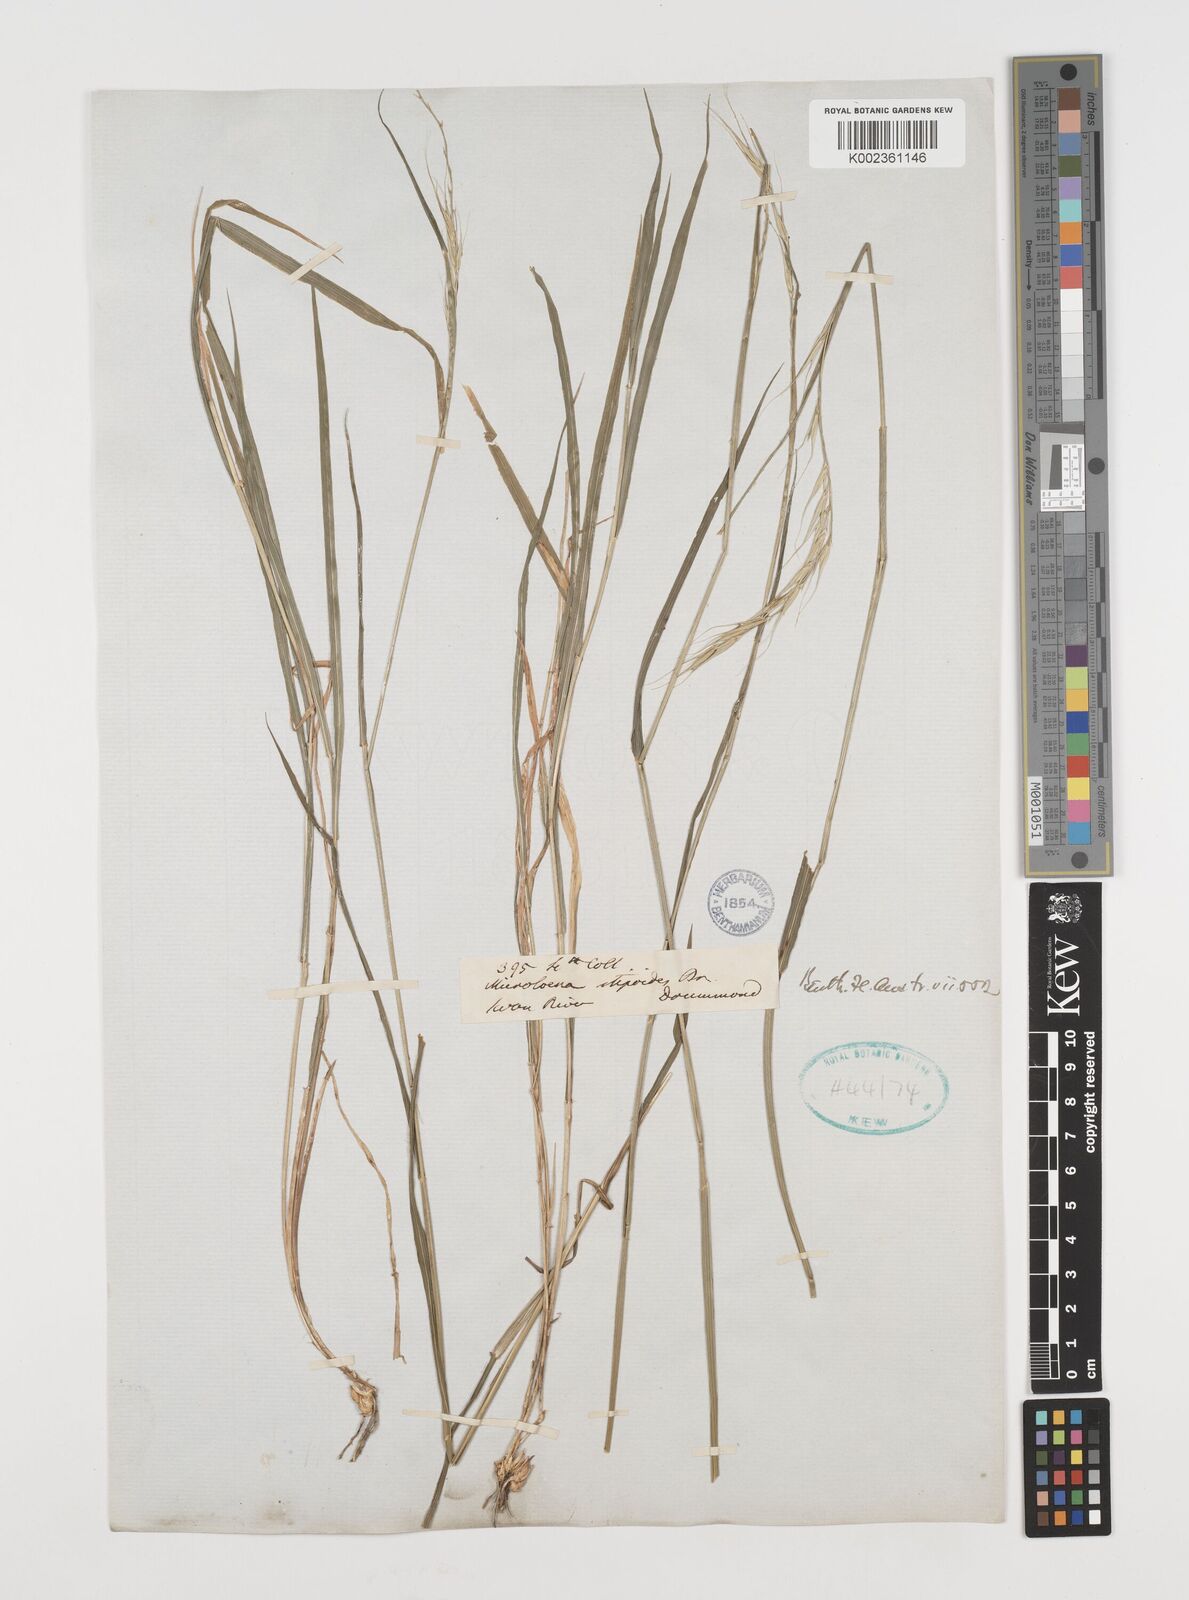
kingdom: Plantae
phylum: Tracheophyta
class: Liliopsida
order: Poales
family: Poaceae
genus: Microlaena
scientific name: Microlaena stipoides
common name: Meadow ricegrass
